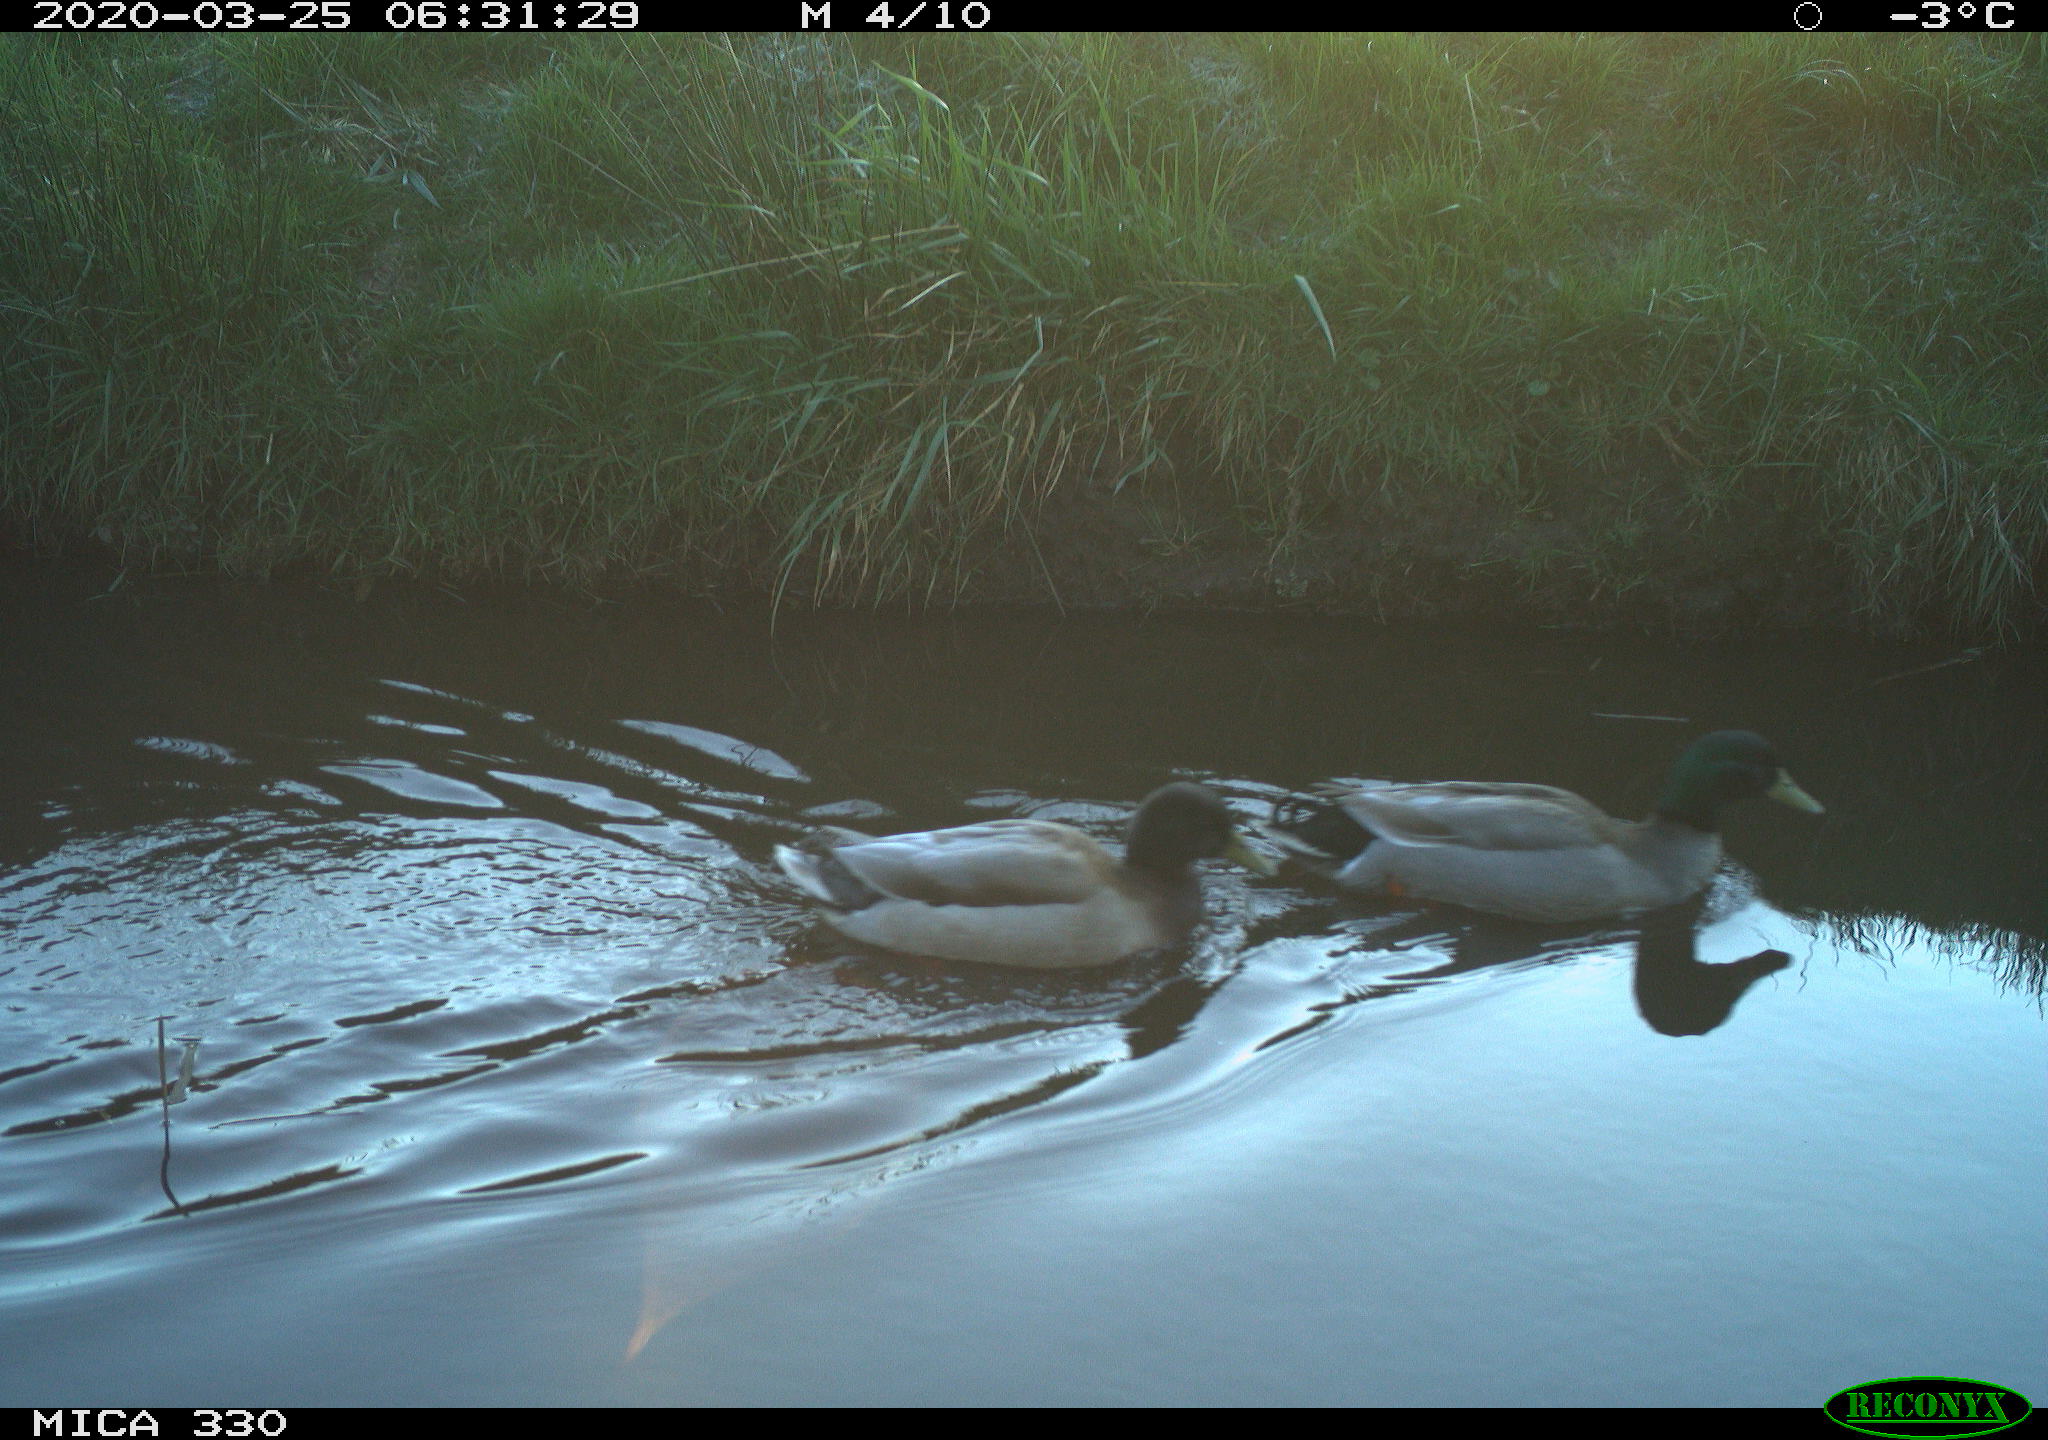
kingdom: Animalia
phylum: Chordata
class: Aves
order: Anseriformes
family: Anatidae
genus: Anas
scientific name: Anas platyrhynchos
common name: Mallard
